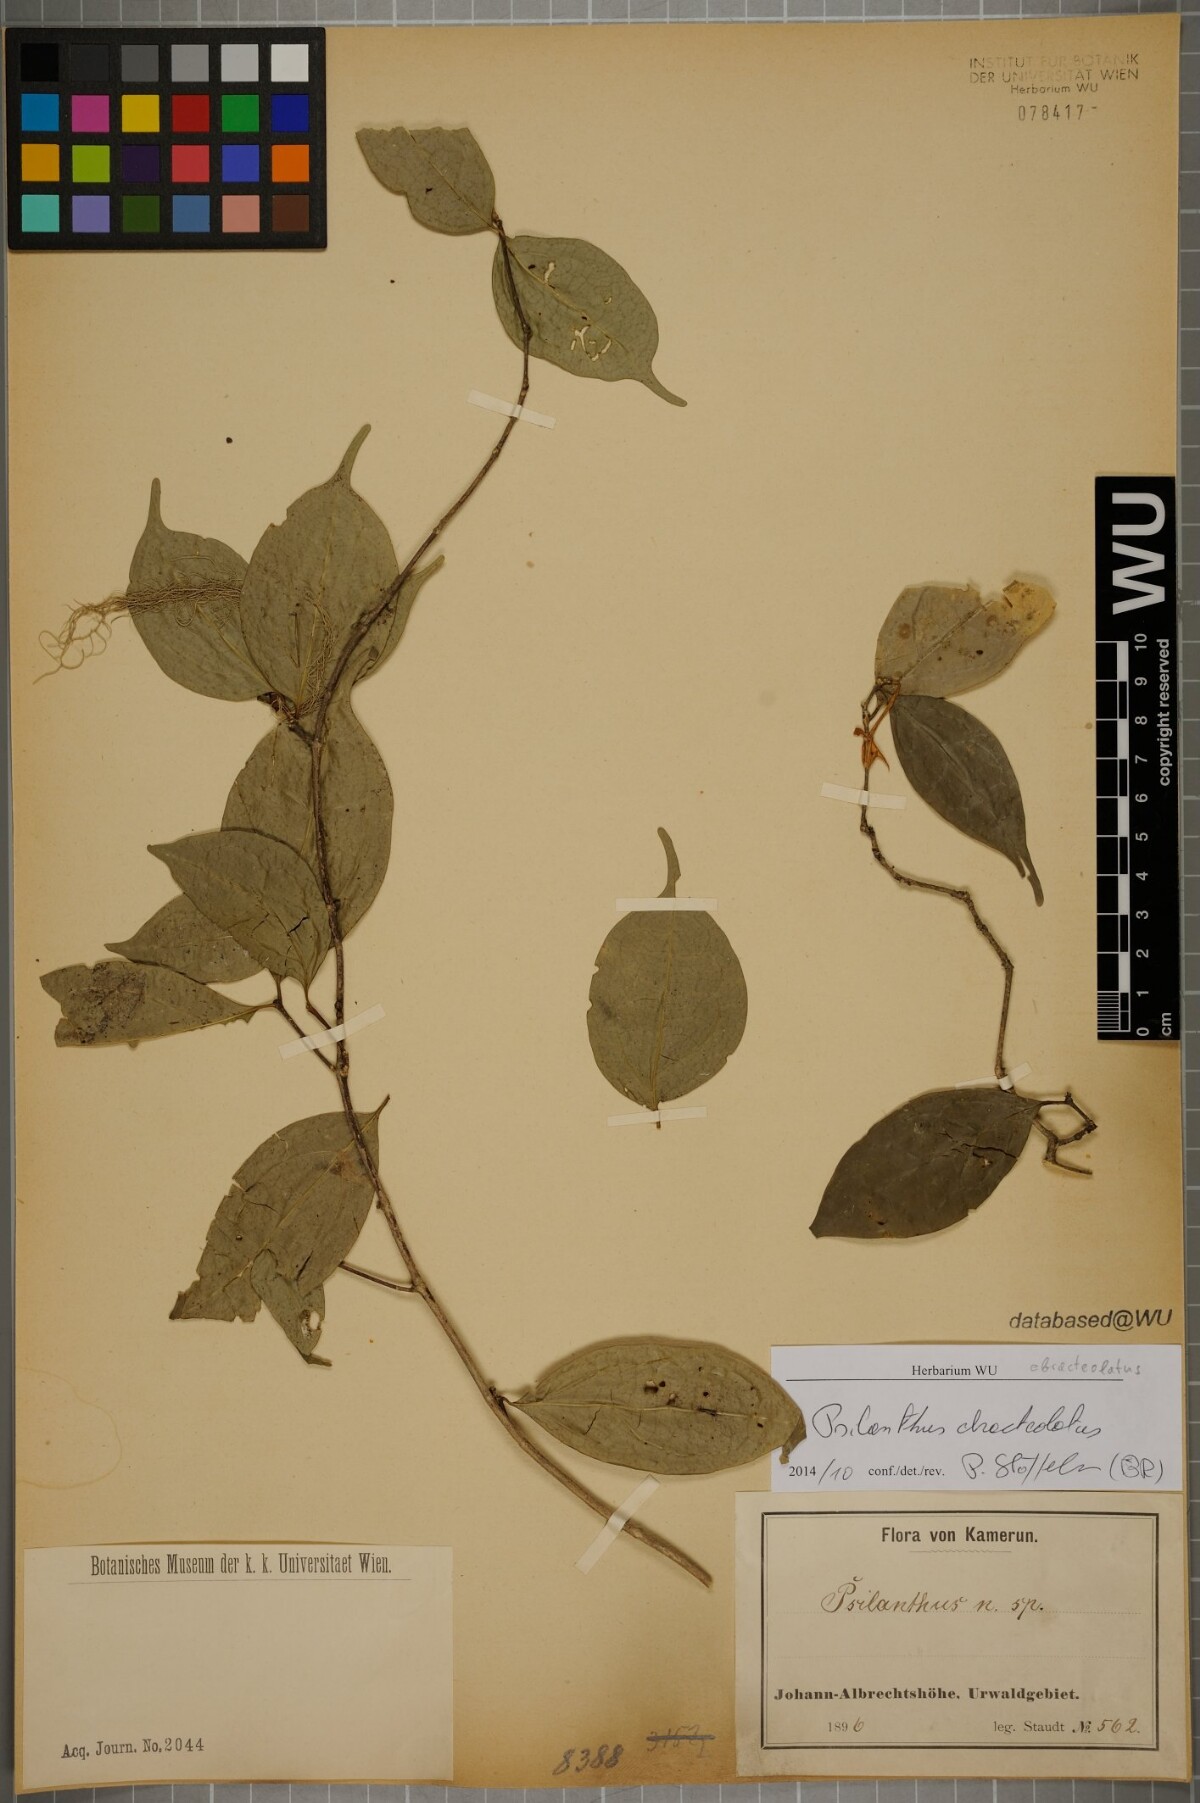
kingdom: Plantae
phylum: Tracheophyta
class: Magnoliopsida
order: Gentianales
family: Rubiaceae
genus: Coffea
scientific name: Coffea ebracteolata
